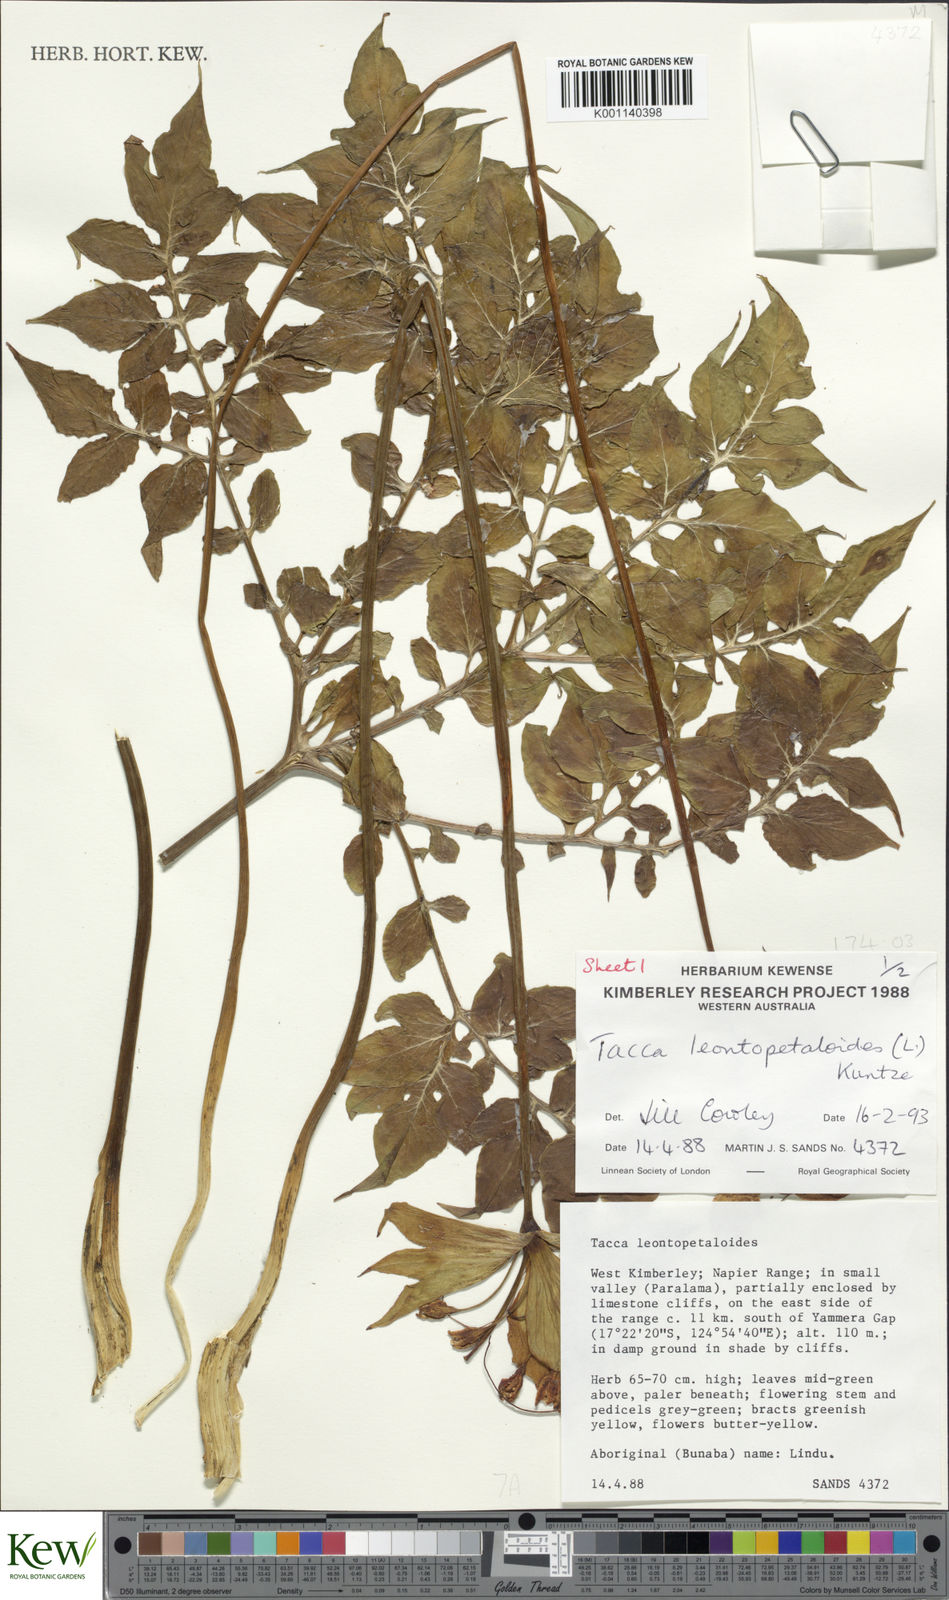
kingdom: Plantae
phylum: Tracheophyta
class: Liliopsida
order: Dioscoreales
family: Dioscoreaceae
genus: Tacca
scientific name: Tacca leontopetaloides
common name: Arrowroot
